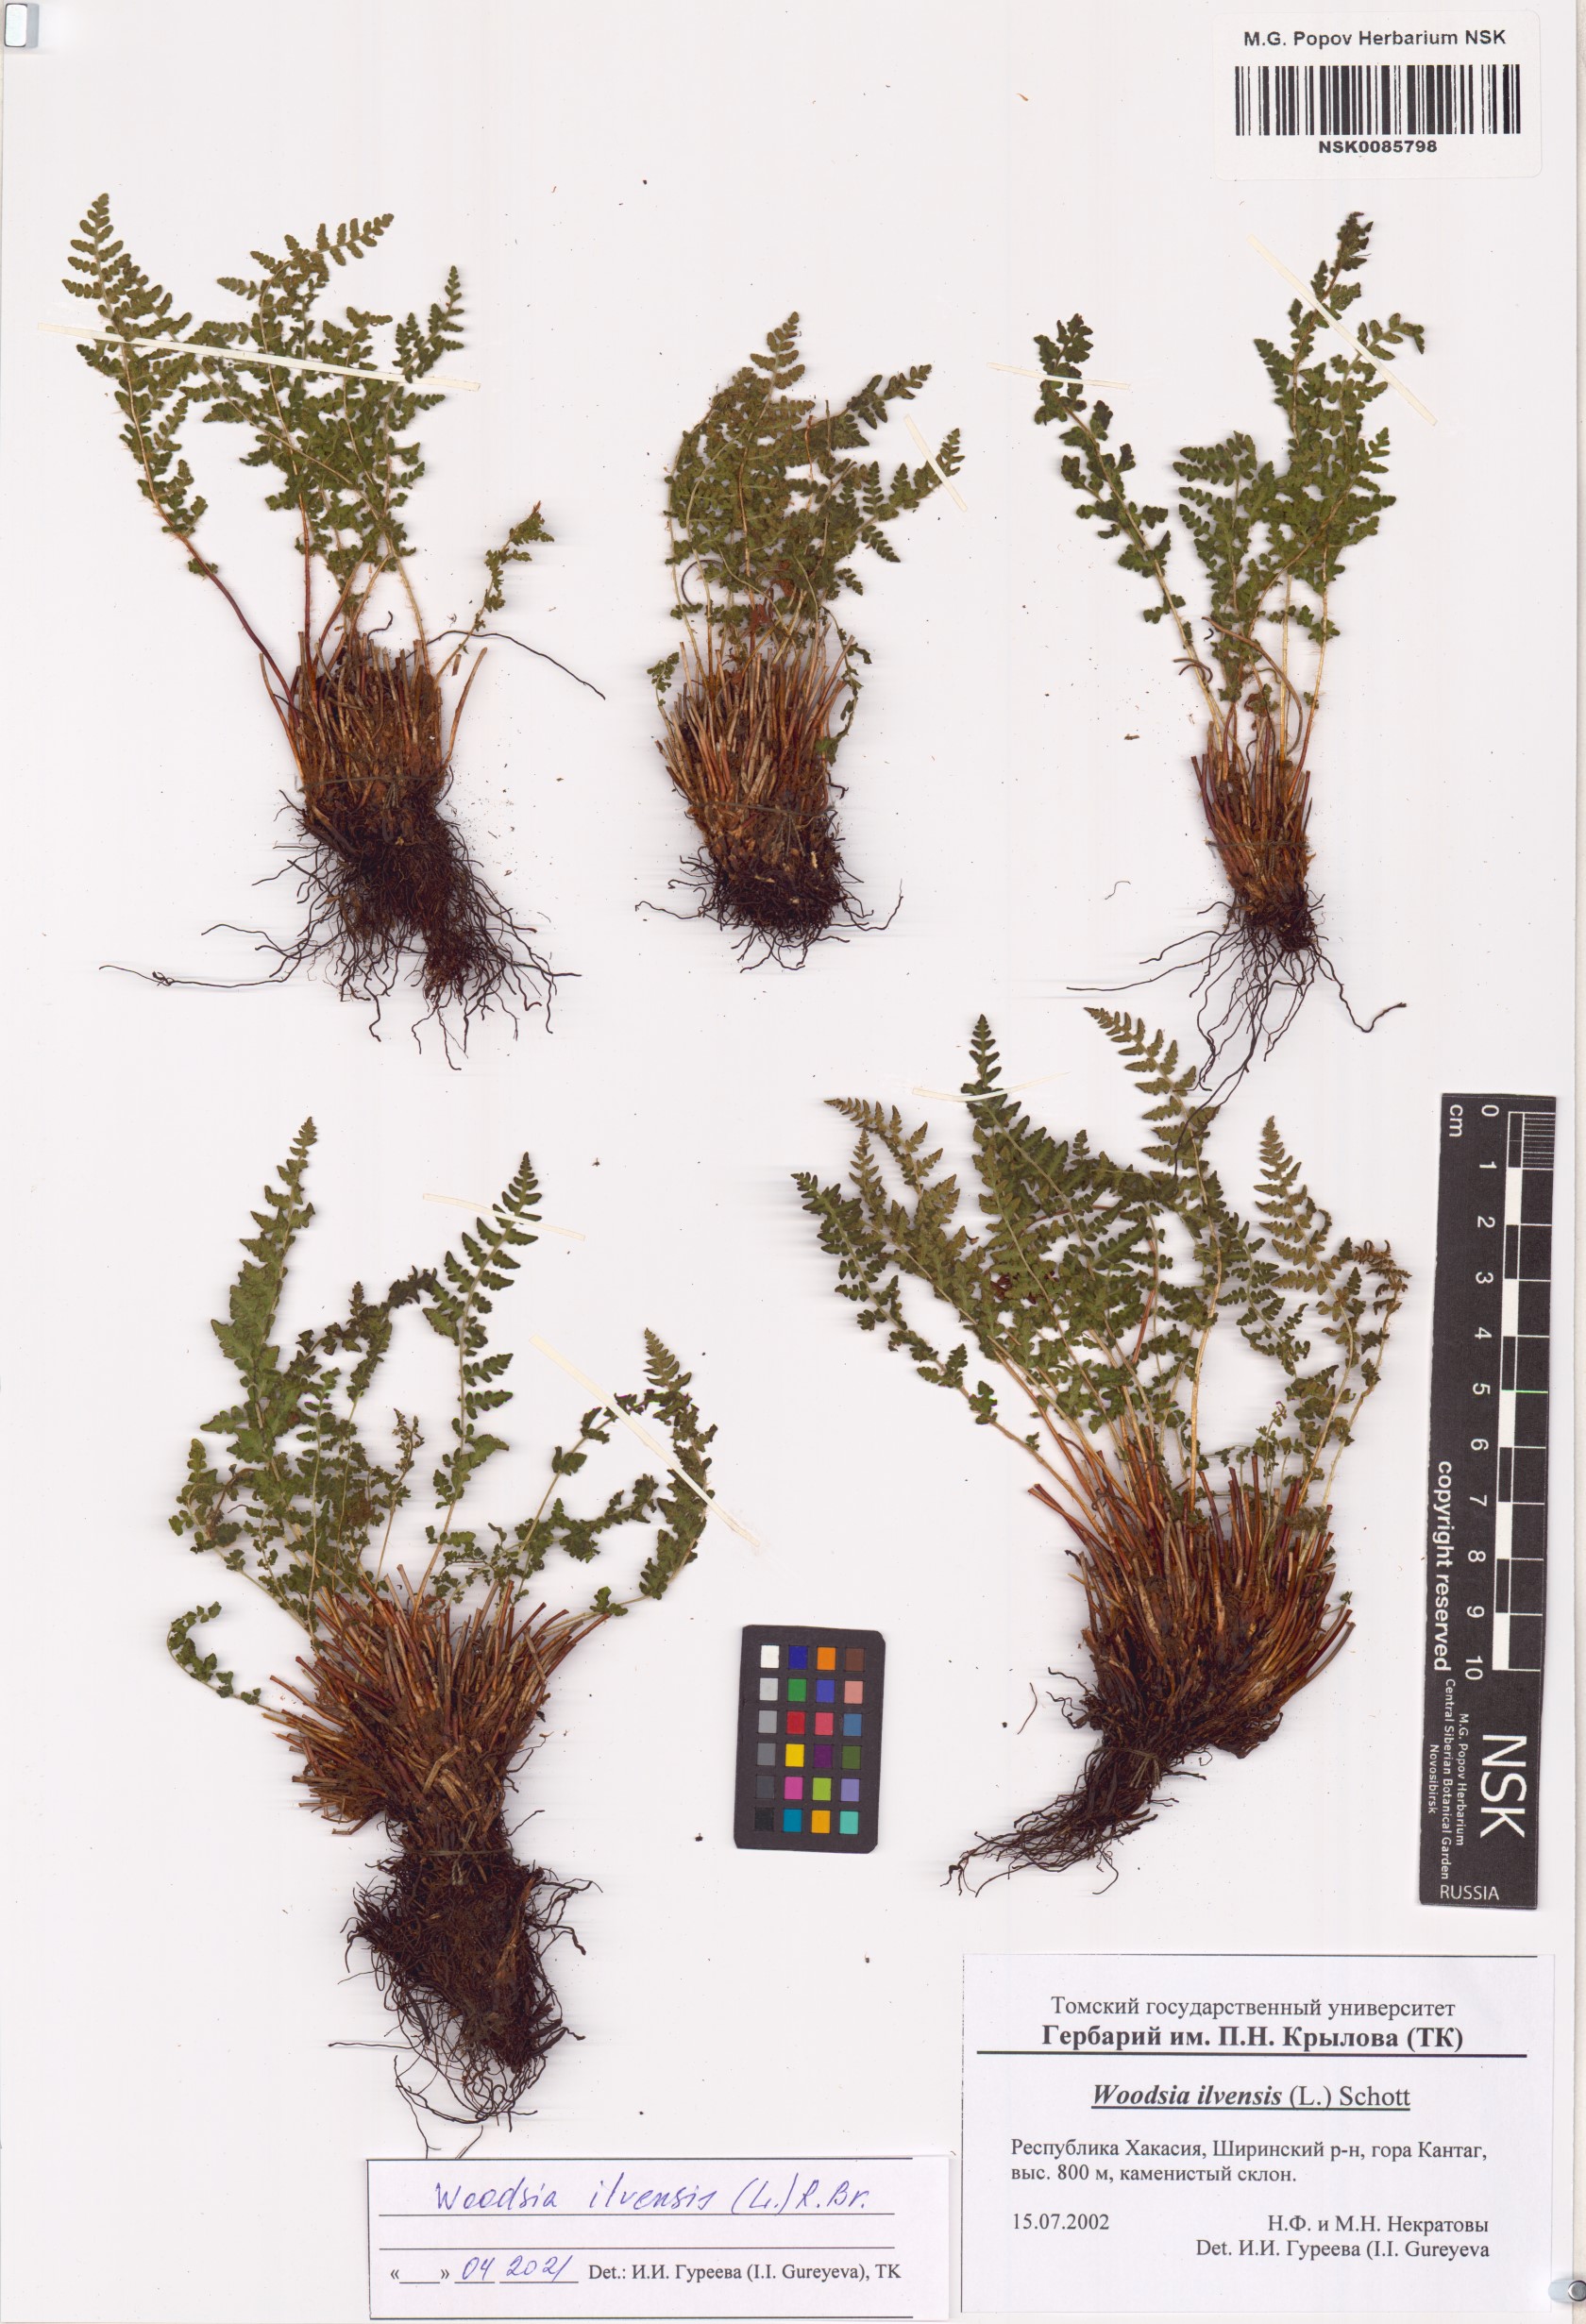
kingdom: Plantae
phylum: Tracheophyta
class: Polypodiopsida
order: Polypodiales
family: Woodsiaceae
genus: Woodsia
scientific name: Woodsia ilvensis
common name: Fragrant woodsia
